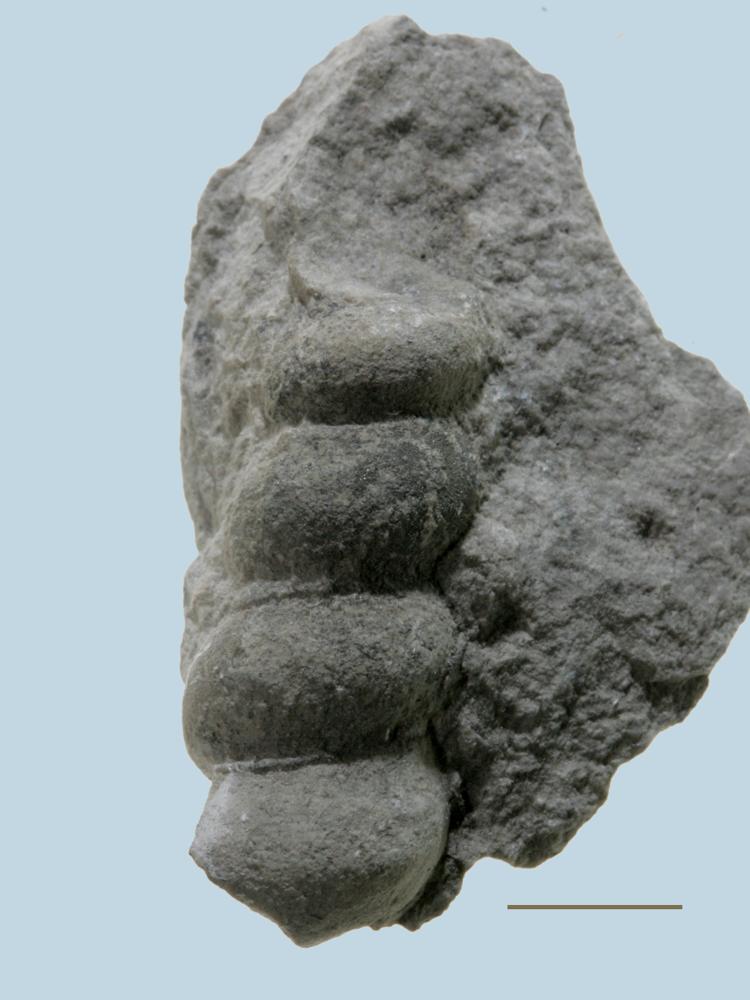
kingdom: Animalia
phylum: Mollusca
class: Gastropoda
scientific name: Gastropoda
